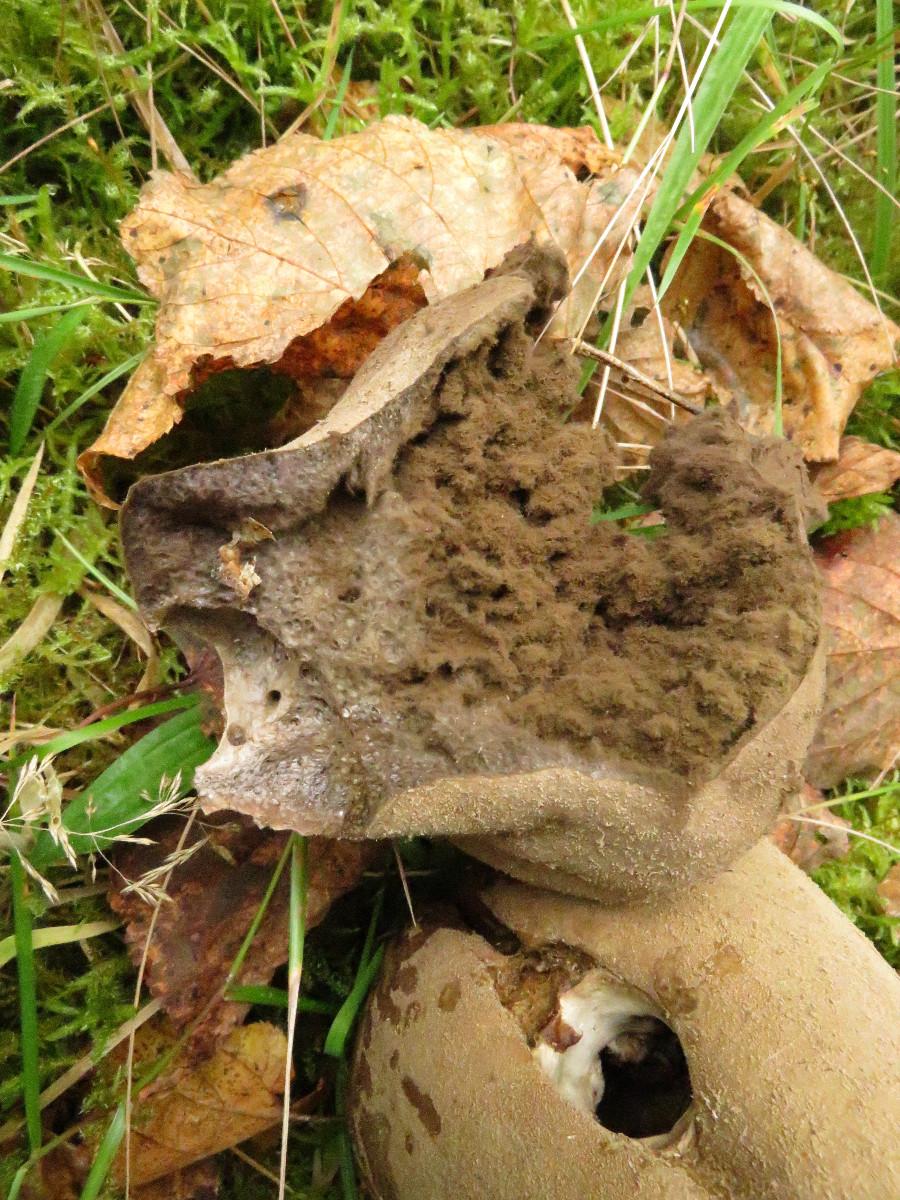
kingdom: Fungi
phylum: Basidiomycota
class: Agaricomycetes
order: Agaricales
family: Lycoperdaceae
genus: Lycoperdon
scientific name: Lycoperdon excipuliforme
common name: højstokket støvbold
